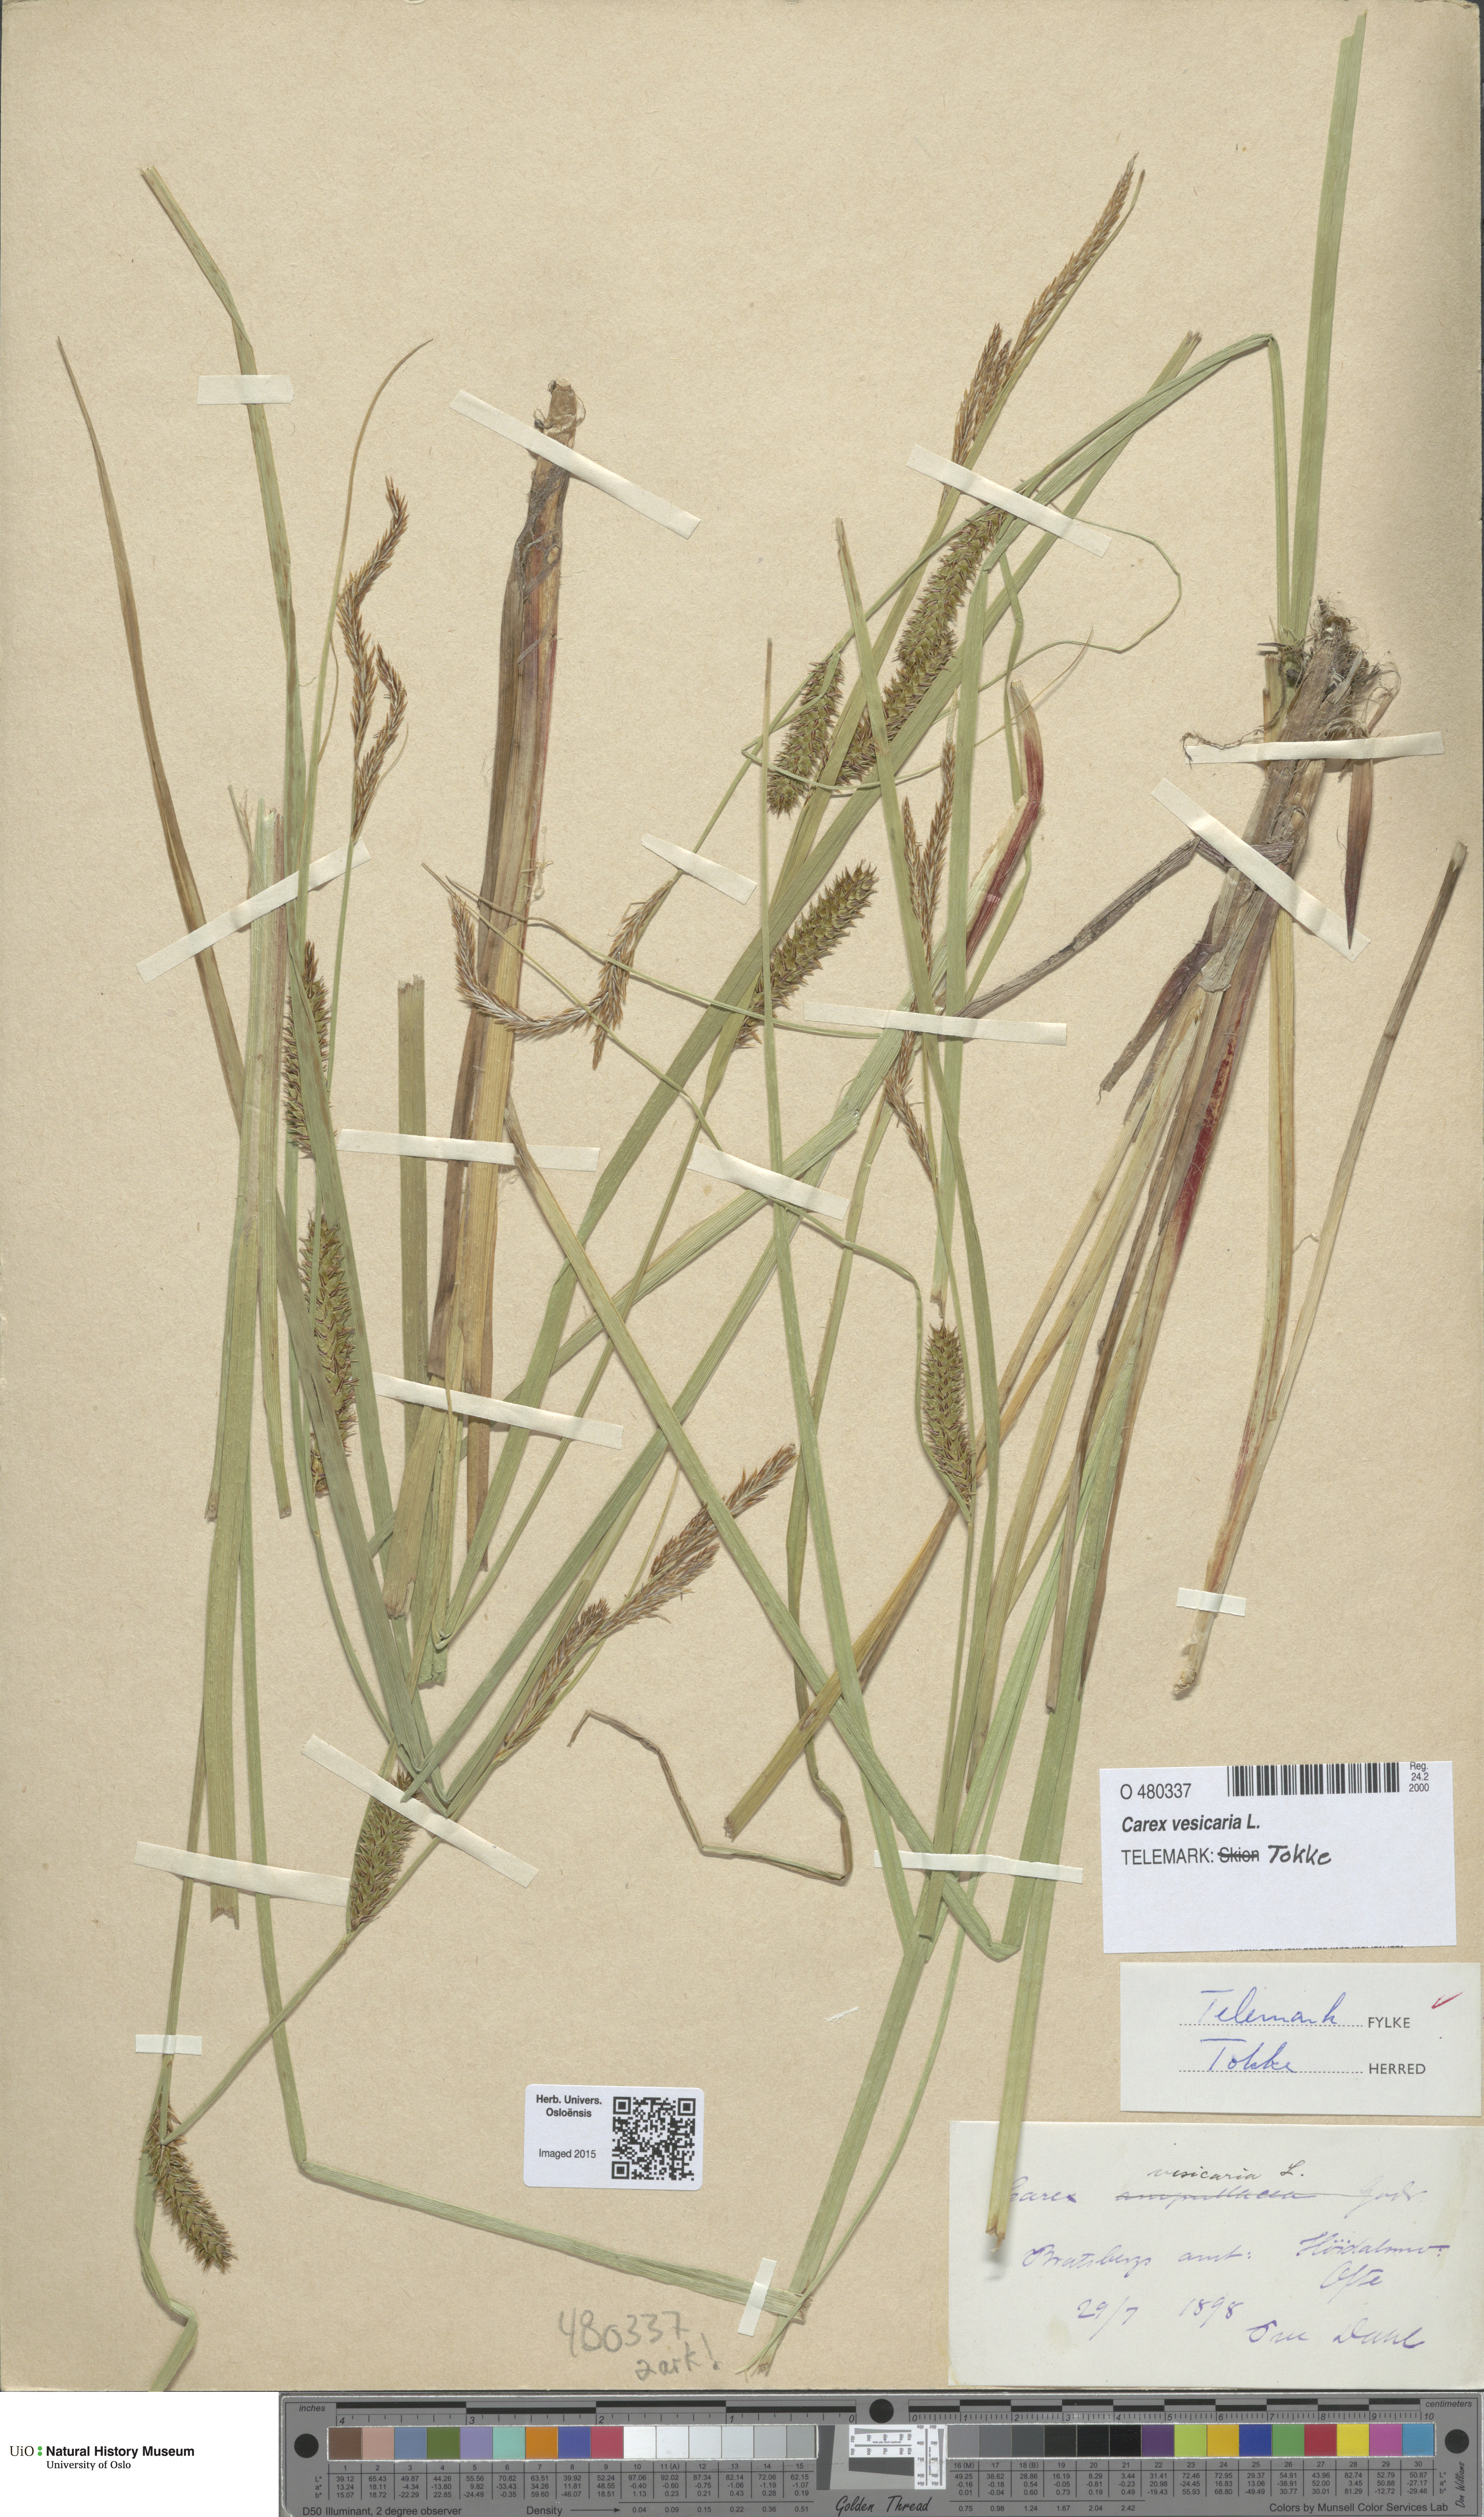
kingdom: Plantae
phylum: Tracheophyta
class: Liliopsida
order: Poales
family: Cyperaceae
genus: Carex
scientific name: Carex vesicaria
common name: Bladder-sedge
